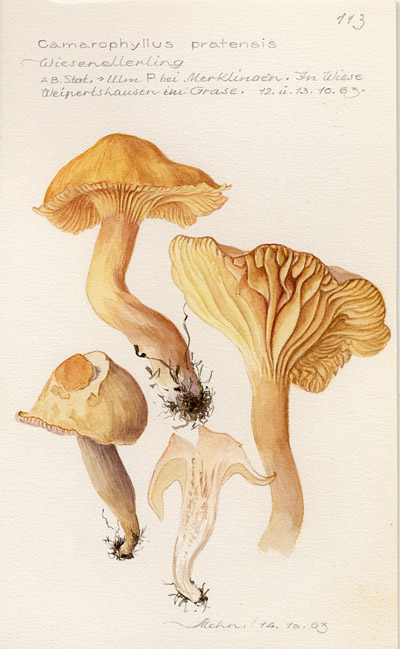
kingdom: Fungi
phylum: Basidiomycota
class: Agaricomycetes
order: Agaricales
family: Hygrophoraceae
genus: Cuphophyllus
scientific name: Cuphophyllus pratensis
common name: Meadow waxcap
